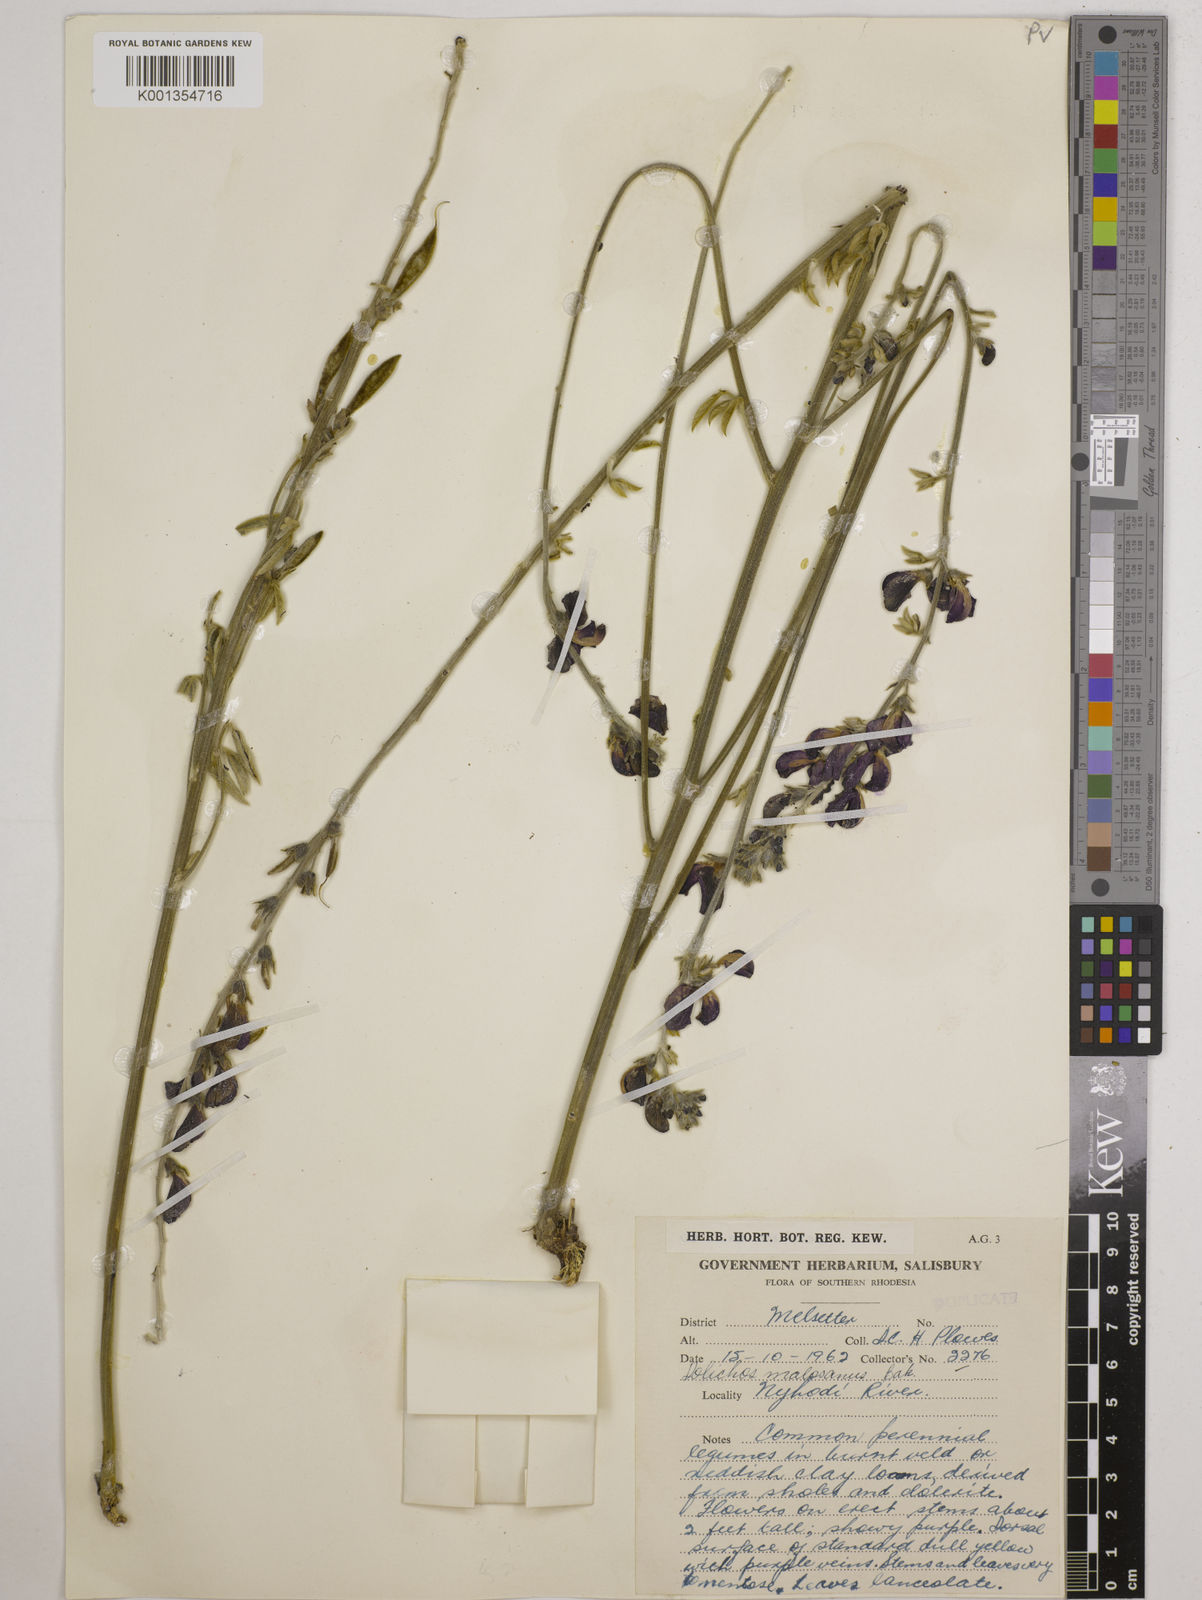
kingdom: Plantae
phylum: Tracheophyta
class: Magnoliopsida
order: Fabales
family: Fabaceae
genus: Dolichos
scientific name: Dolichos kilimandscharicus
